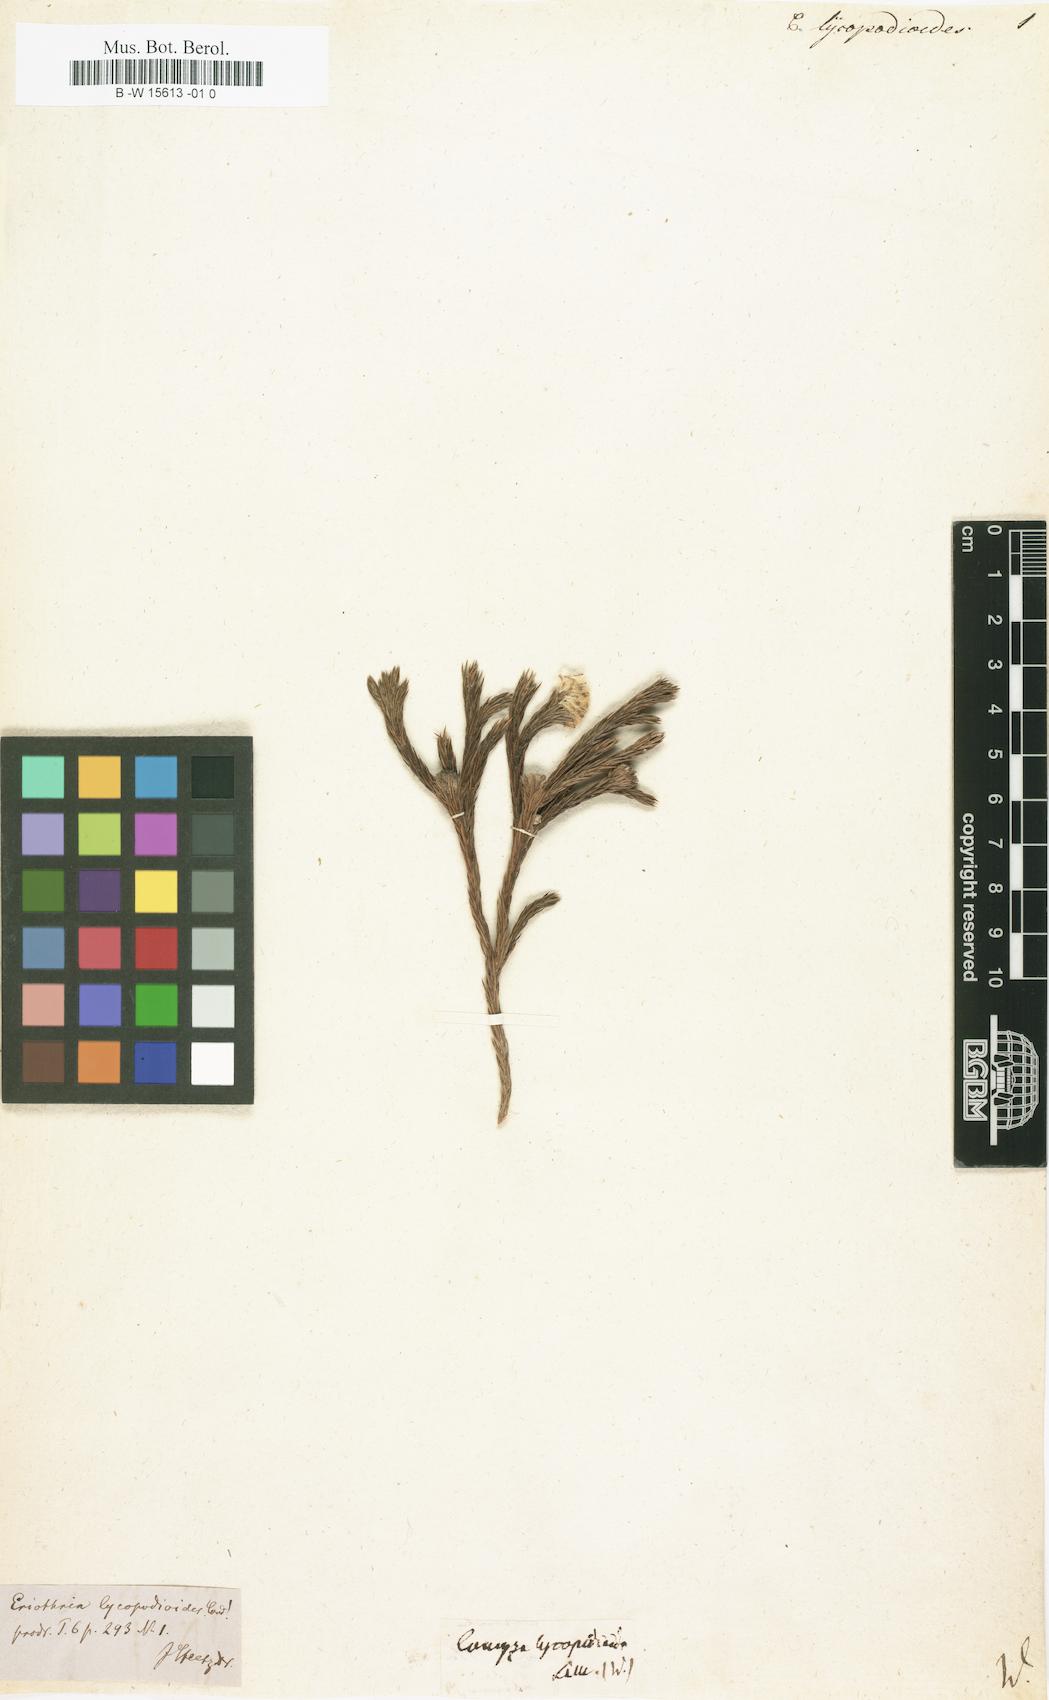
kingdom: Plantae
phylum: Tracheophyta
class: Magnoliopsida
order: Asterales
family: Asteraceae
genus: Eriothrix
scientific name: Eriothrix lycopodioides
